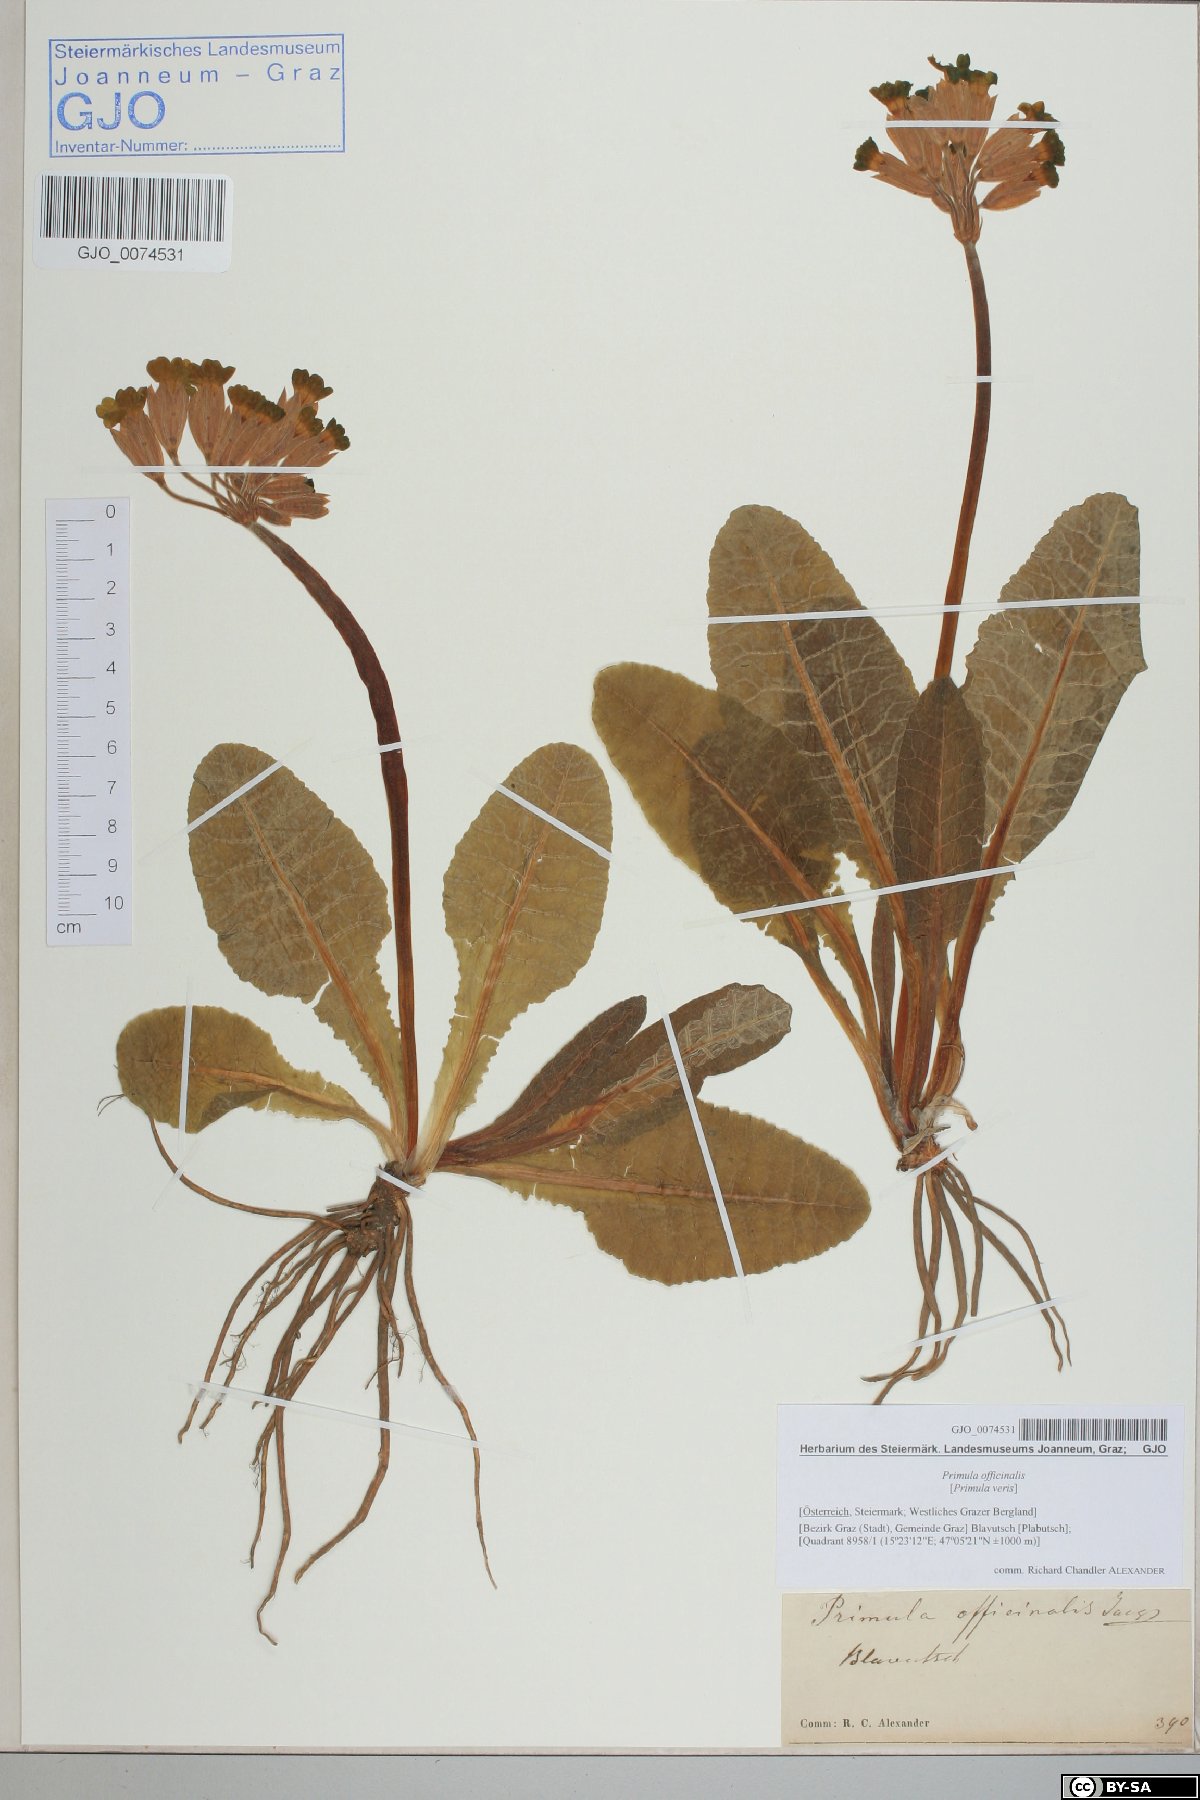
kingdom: Plantae
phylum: Tracheophyta
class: Magnoliopsida
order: Ericales
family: Primulaceae
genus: Primula
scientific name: Primula veris
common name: Cowslip
